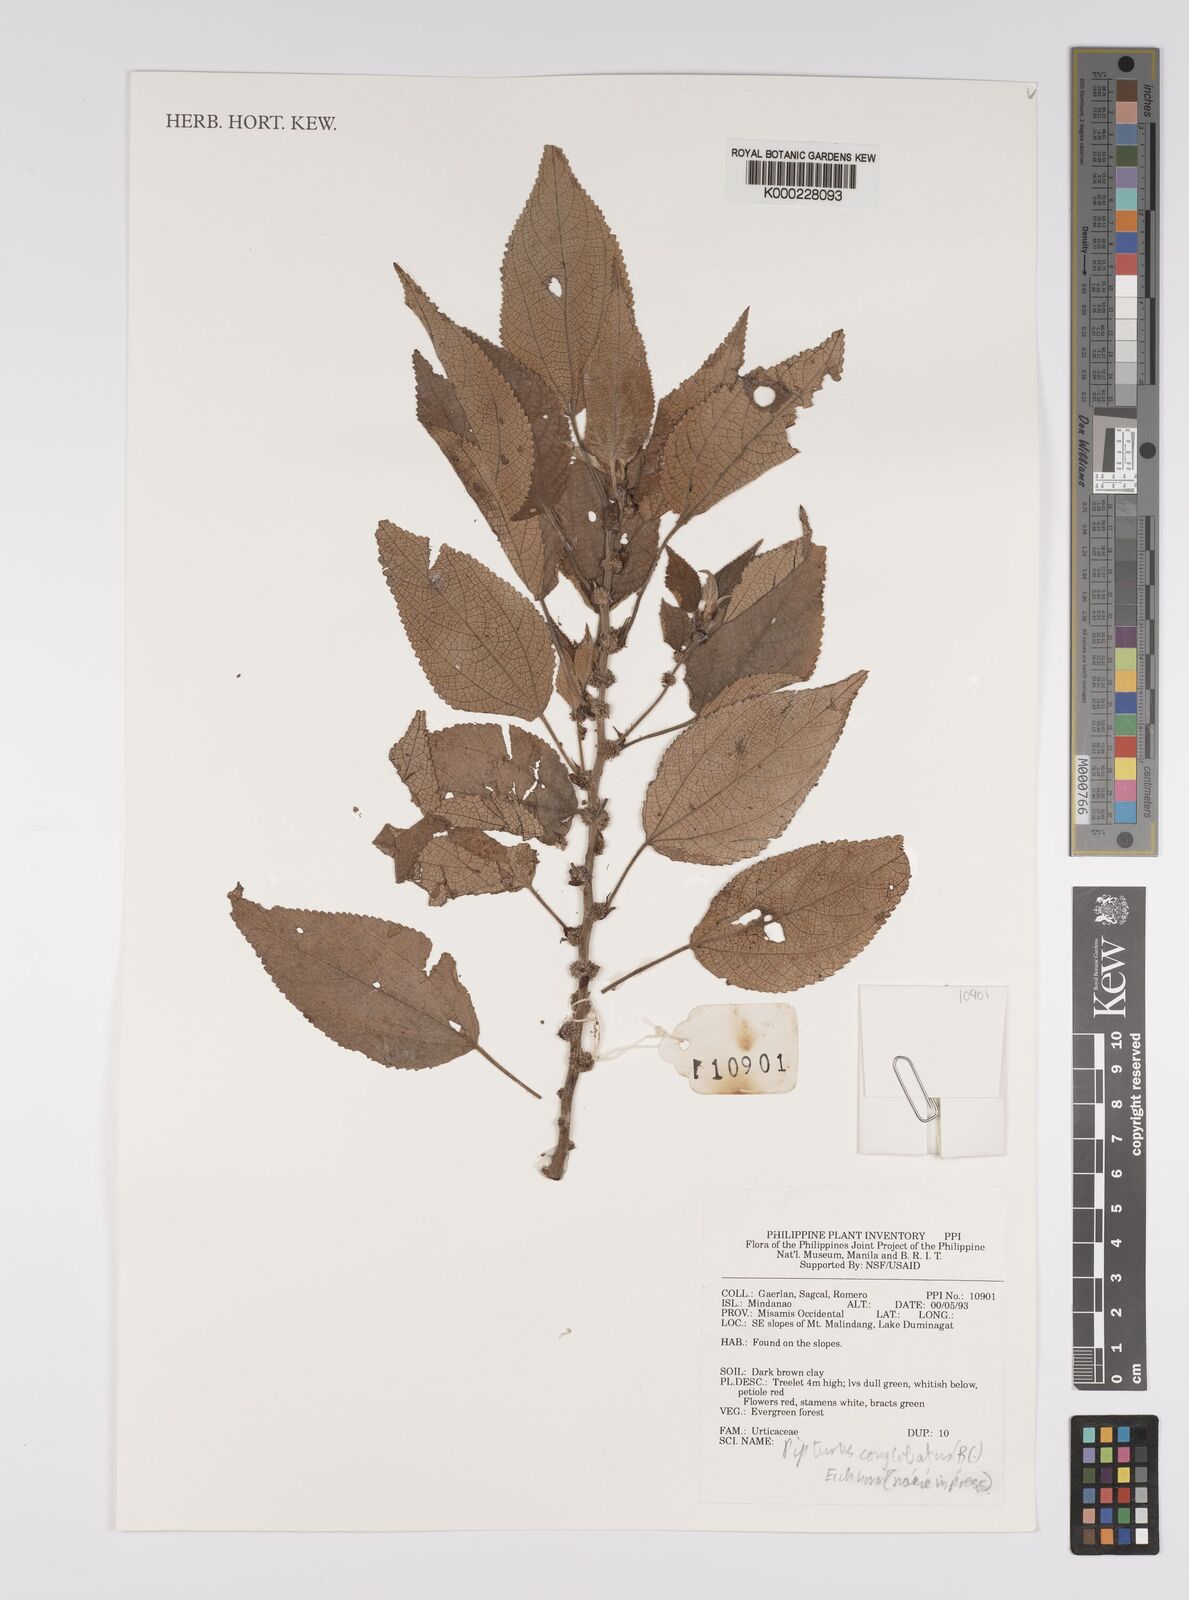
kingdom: Plantae
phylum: Tracheophyta
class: Magnoliopsida
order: Rosales
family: Urticaceae
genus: Pipturus
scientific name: Pipturus
